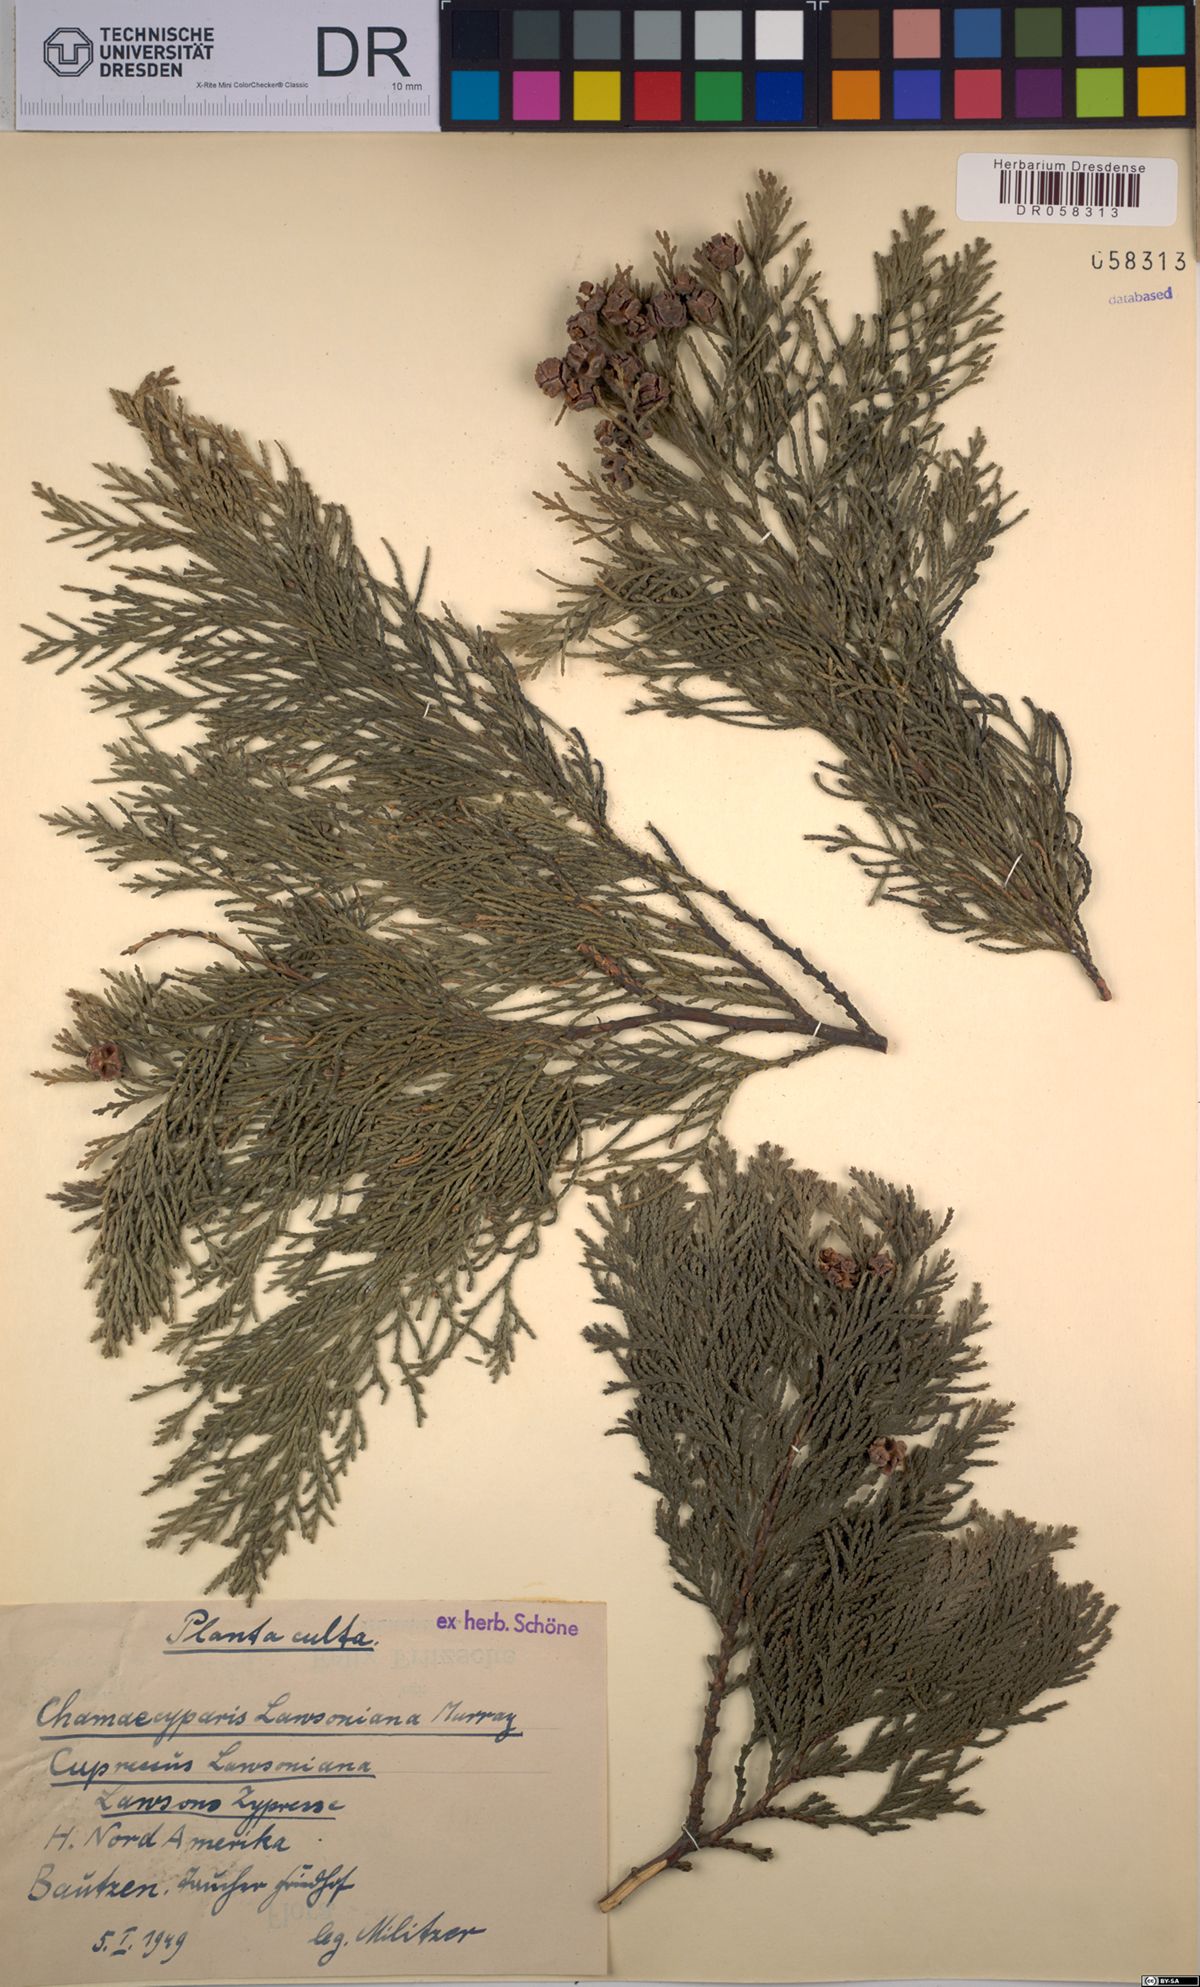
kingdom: Plantae
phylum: Tracheophyta
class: Pinopsida
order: Pinales
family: Cupressaceae
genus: Chamaecyparis
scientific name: Chamaecyparis lawsoniana
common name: Lawson's cypress
